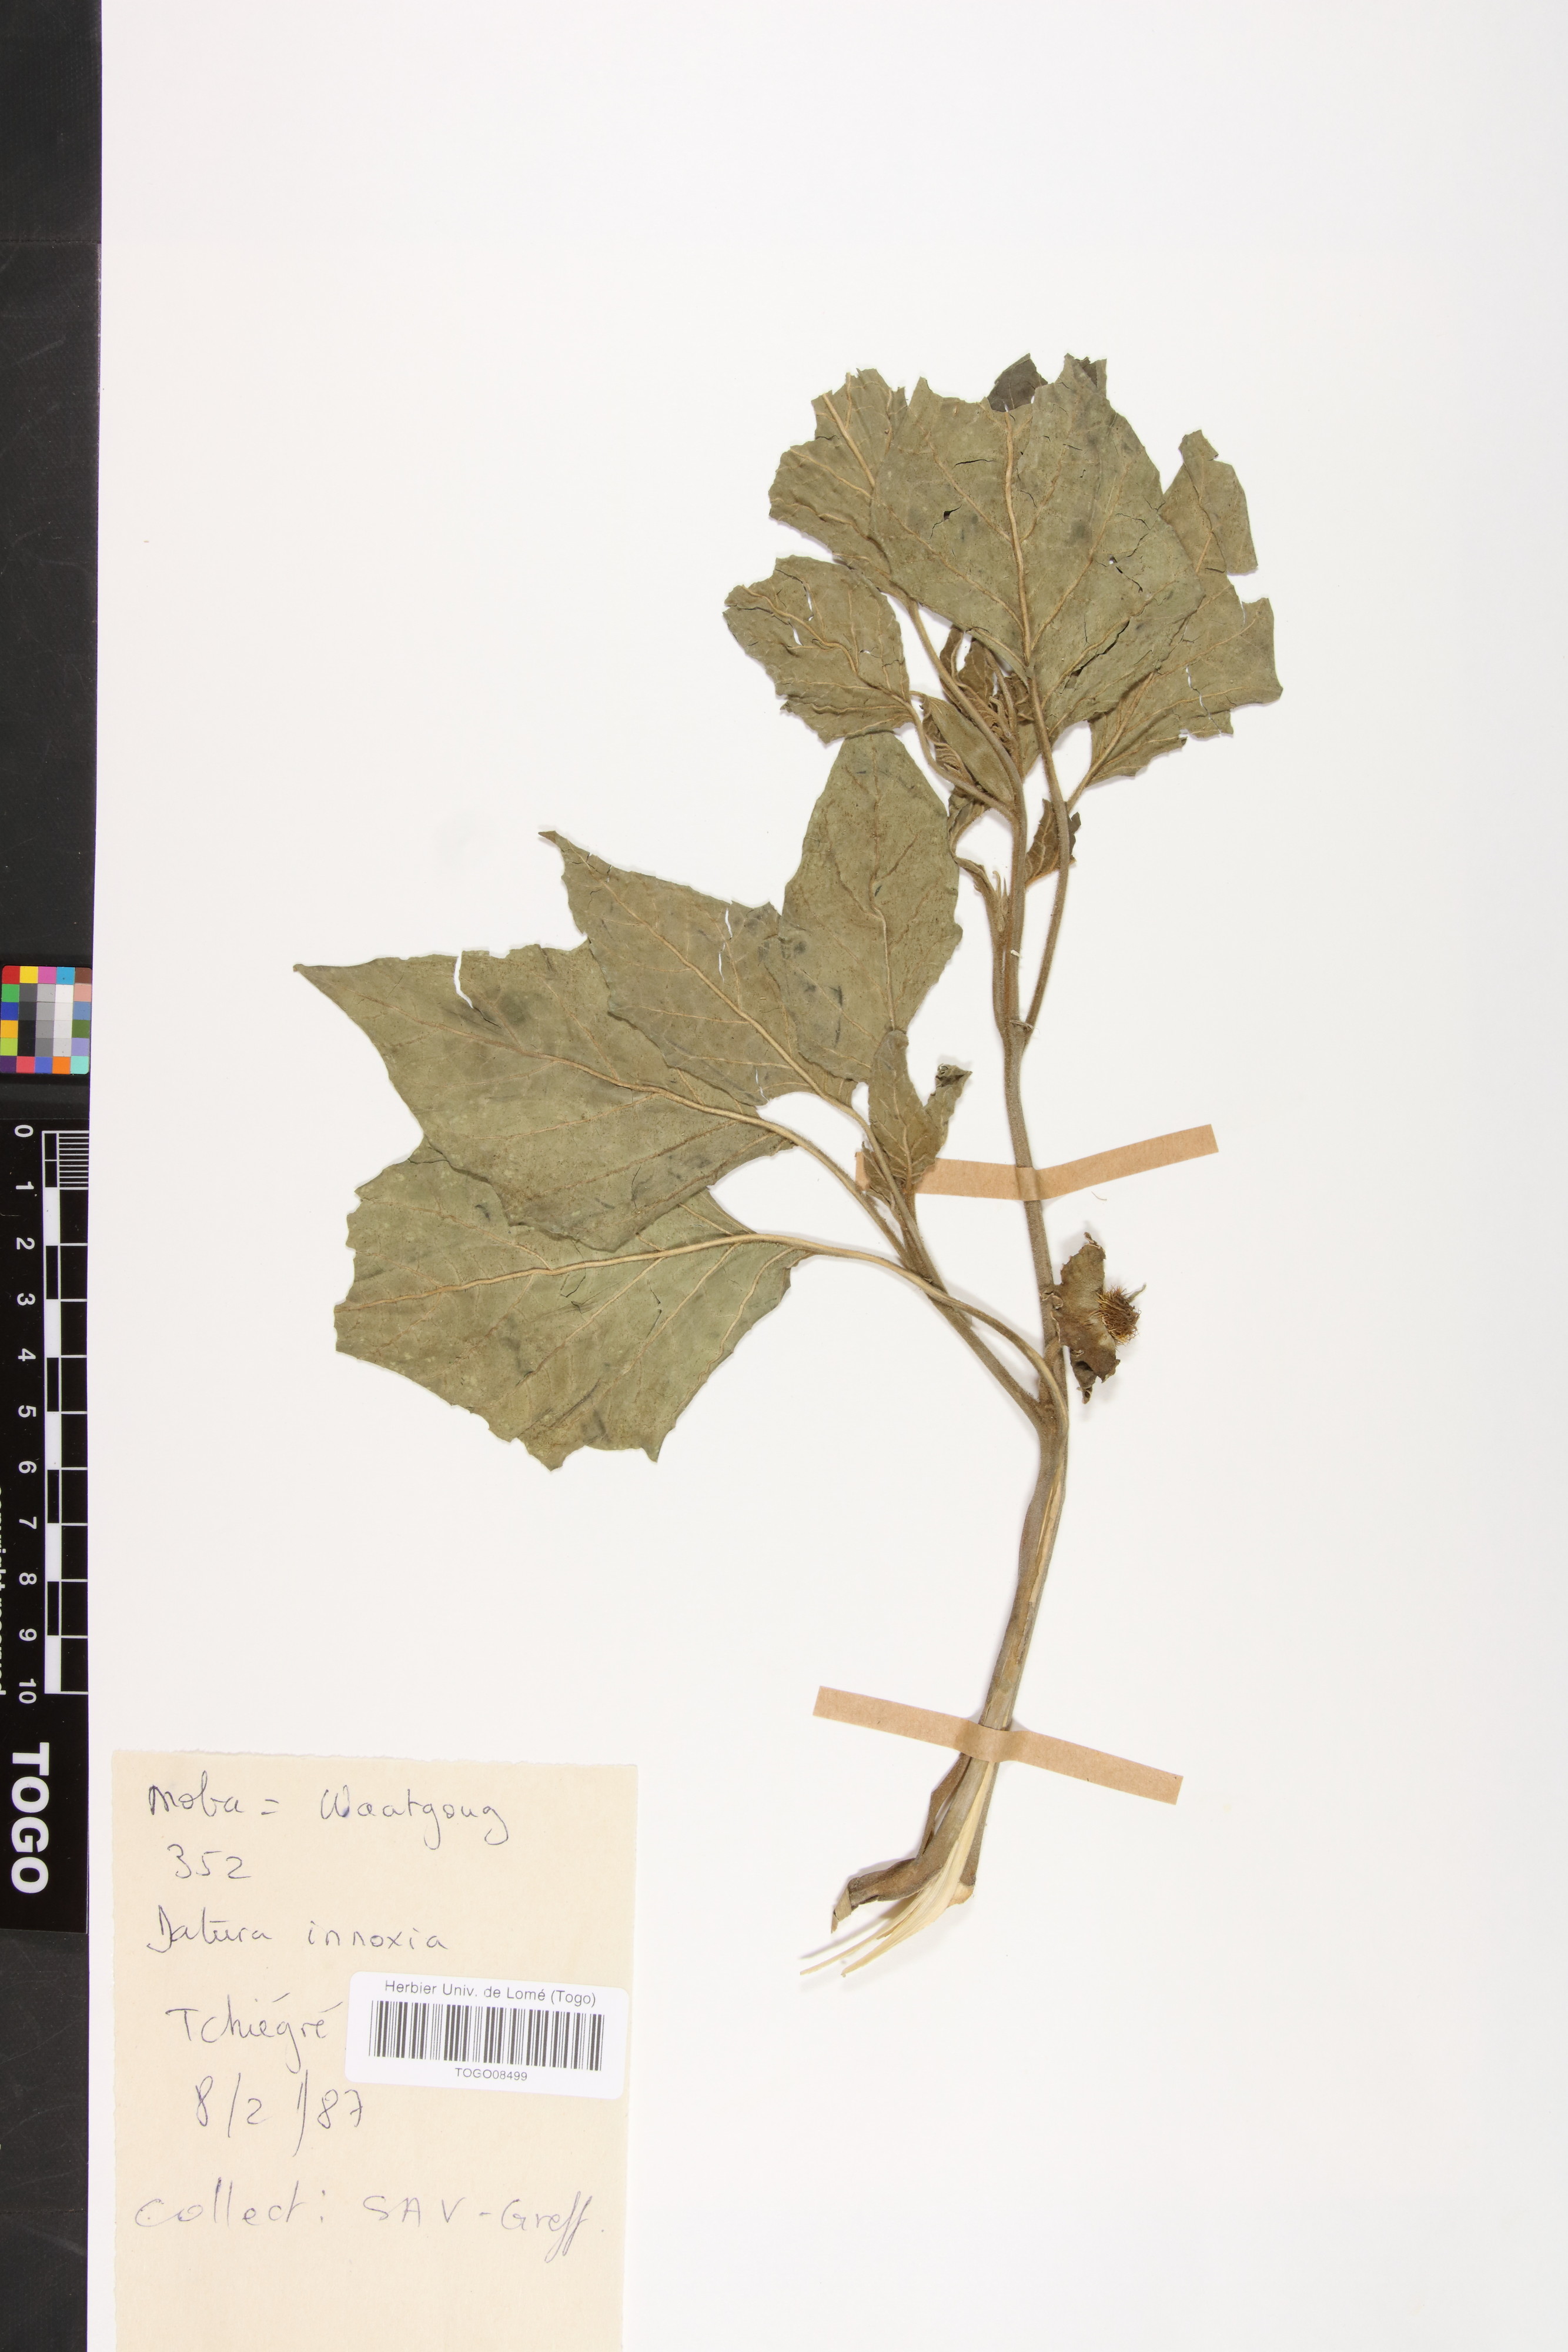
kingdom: Plantae
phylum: Tracheophyta
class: Magnoliopsida
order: Solanales
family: Solanaceae
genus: Datura
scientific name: Datura innoxia
